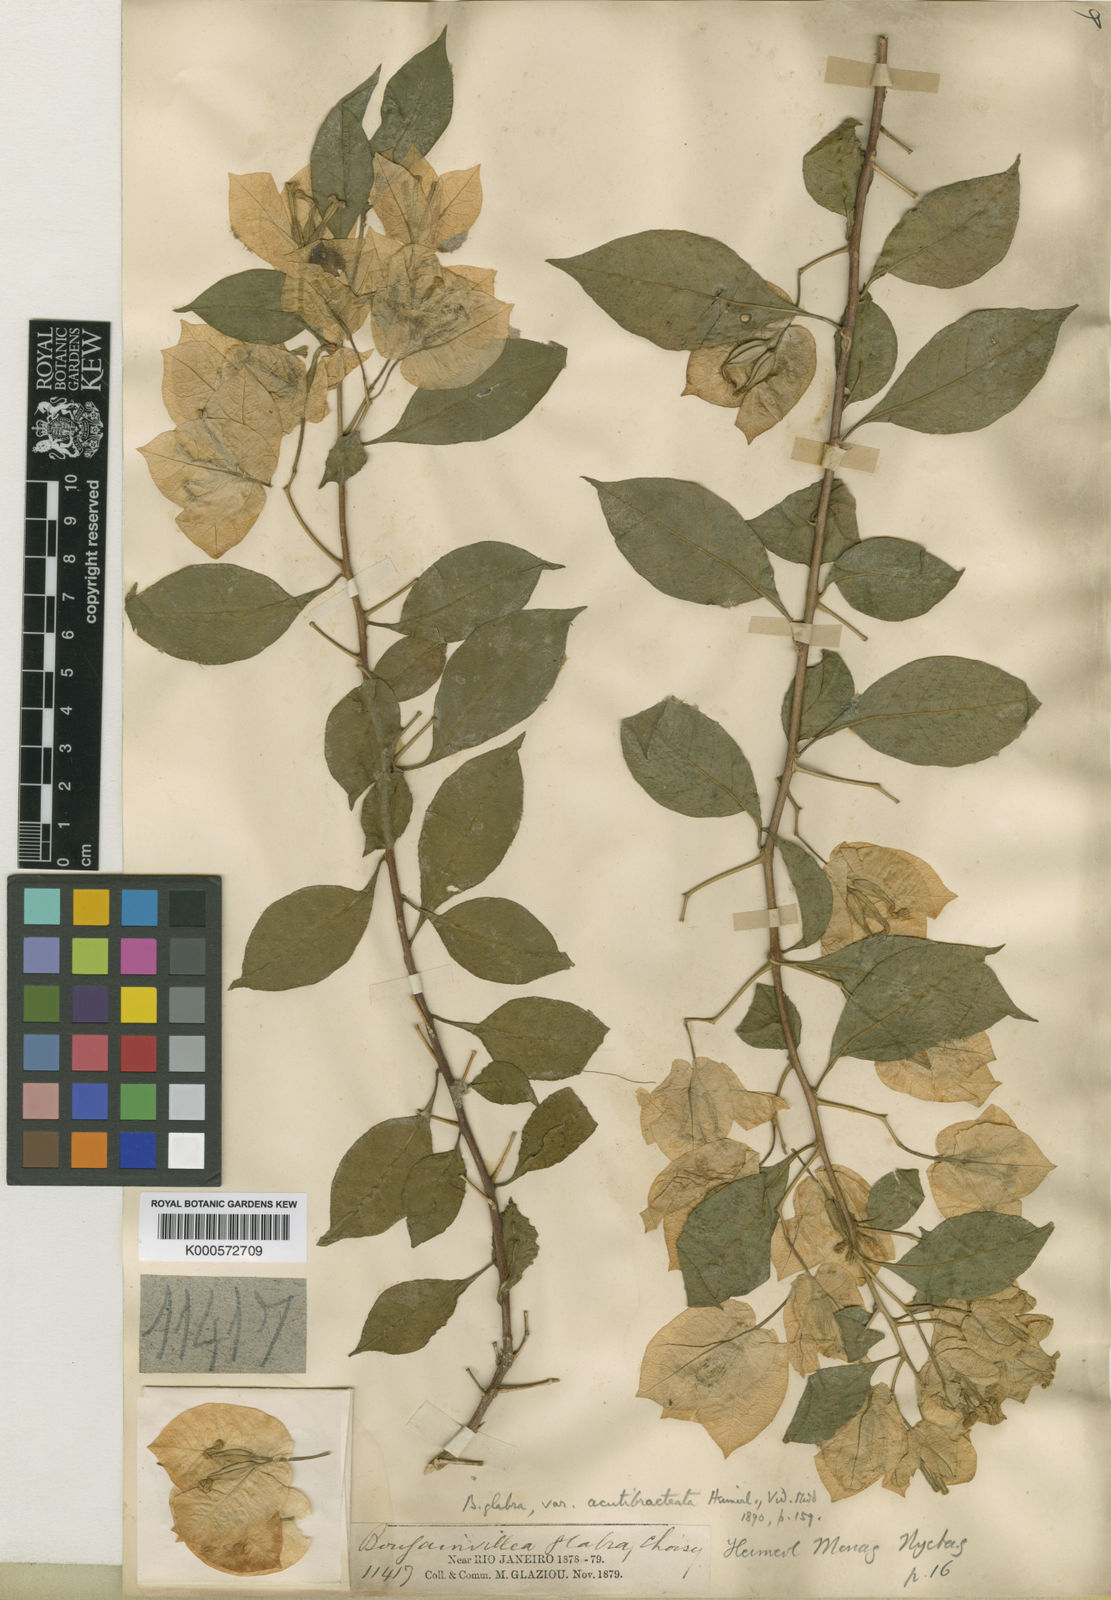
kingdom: Plantae
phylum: Tracheophyta
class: Magnoliopsida
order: Caryophyllales
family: Nyctaginaceae
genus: Bougainvillea
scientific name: Bougainvillea glabra
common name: Paperflower
